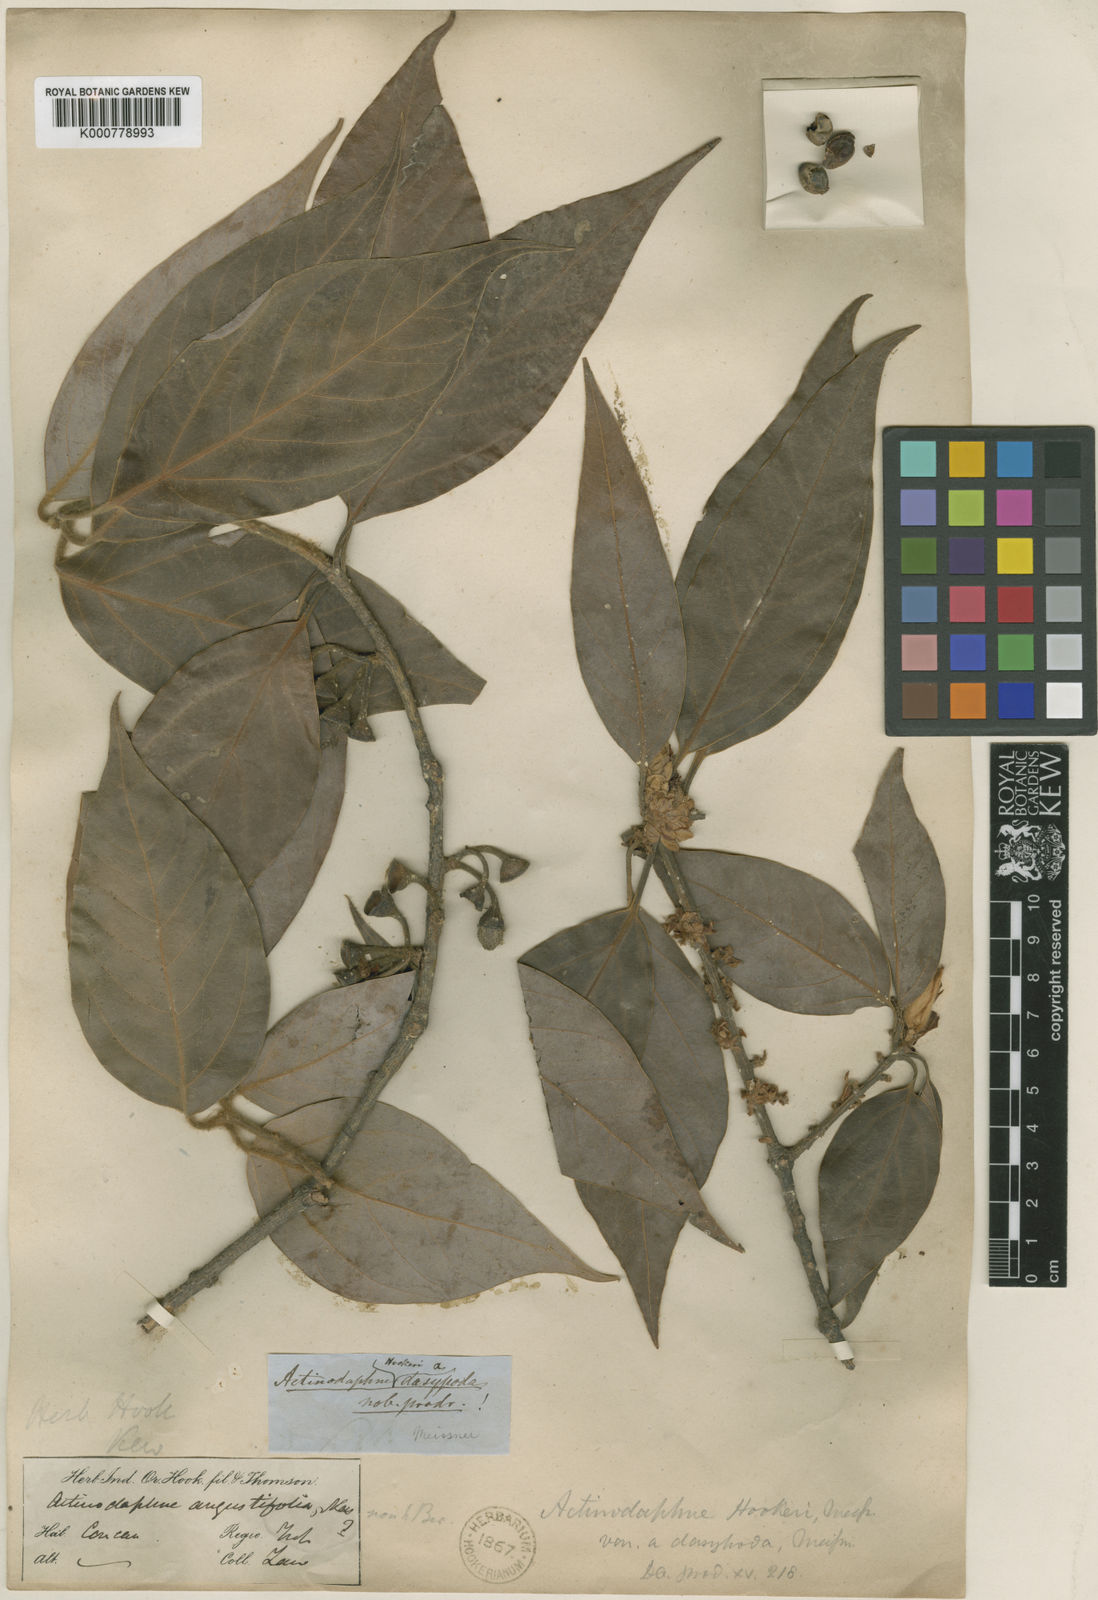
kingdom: Plantae
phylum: Tracheophyta
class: Magnoliopsida
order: Laurales
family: Lauraceae
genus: Actinodaphne
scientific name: Actinodaphne lanceolata
